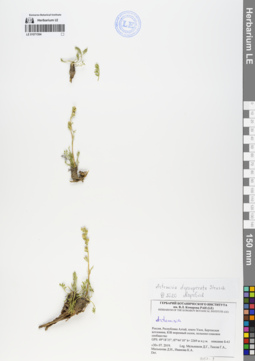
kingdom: Plantae
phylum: Tracheophyta
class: Magnoliopsida
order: Asterales
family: Asteraceae
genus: Artemisia
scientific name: Artemisia pycnorrhiza
